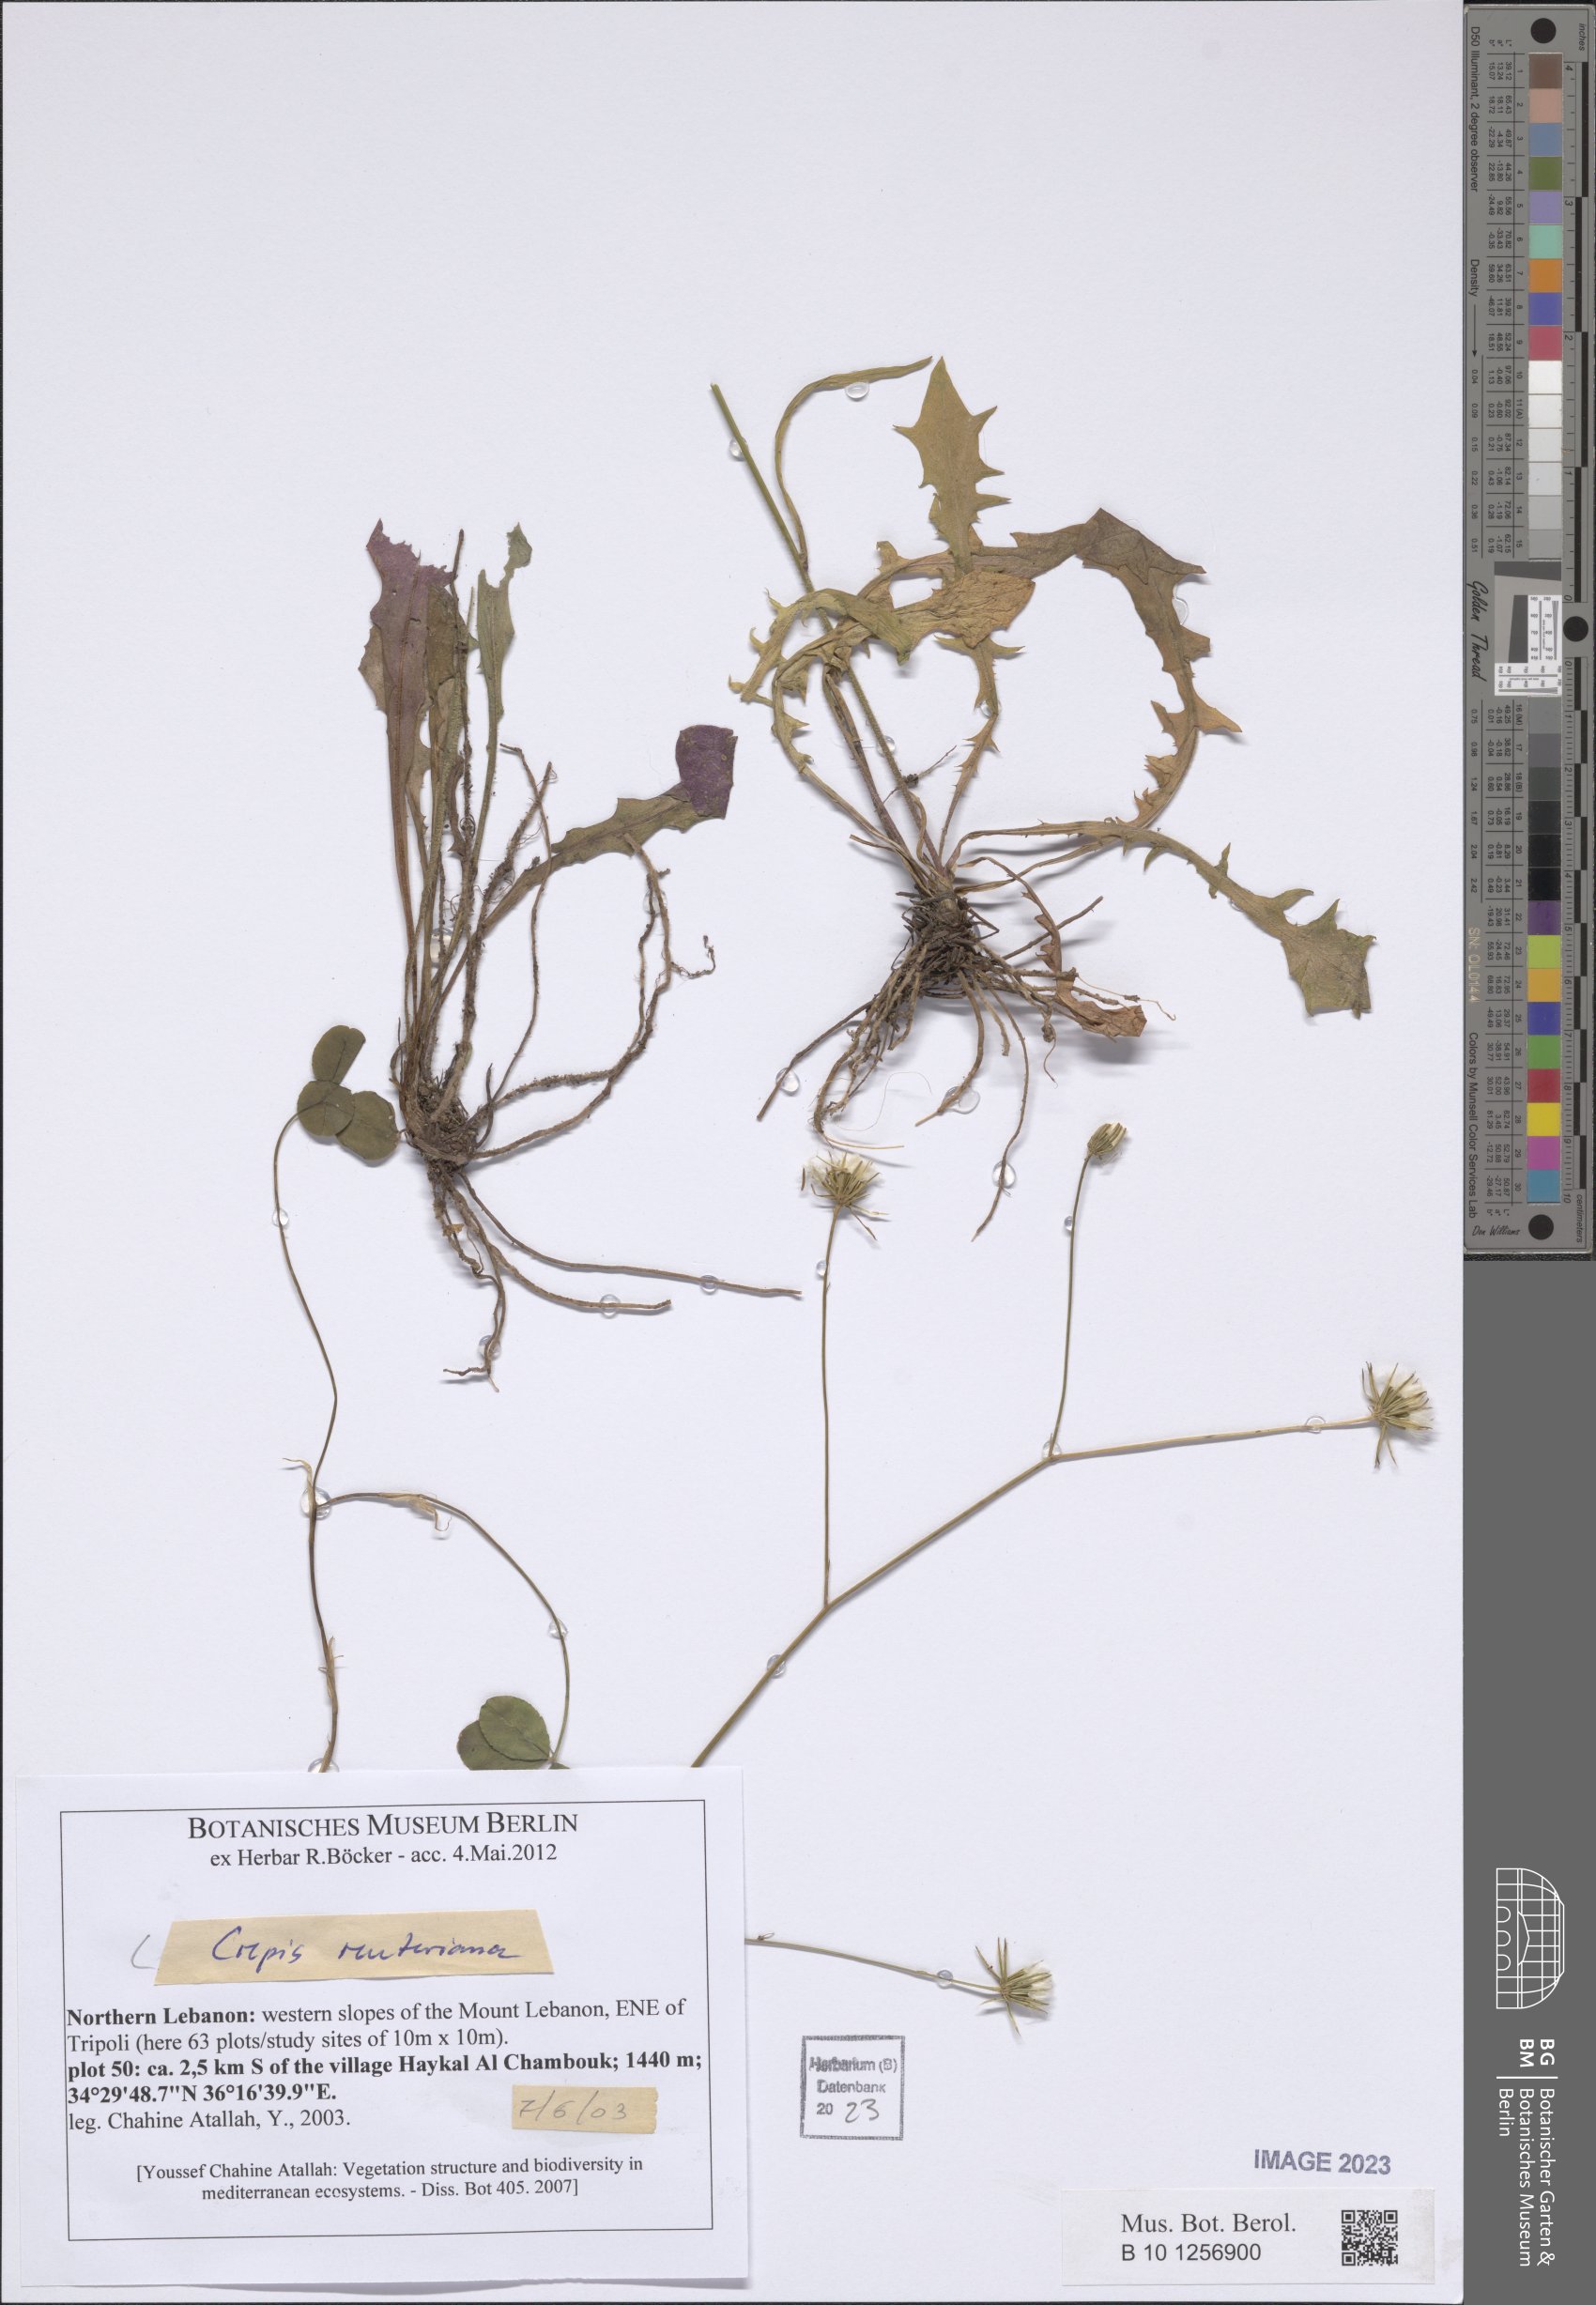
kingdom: Plantae
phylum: Tracheophyta
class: Magnoliopsida
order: Asterales
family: Asteraceae
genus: Crepis
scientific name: Crepis reuteriana
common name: Hawk's-beard
